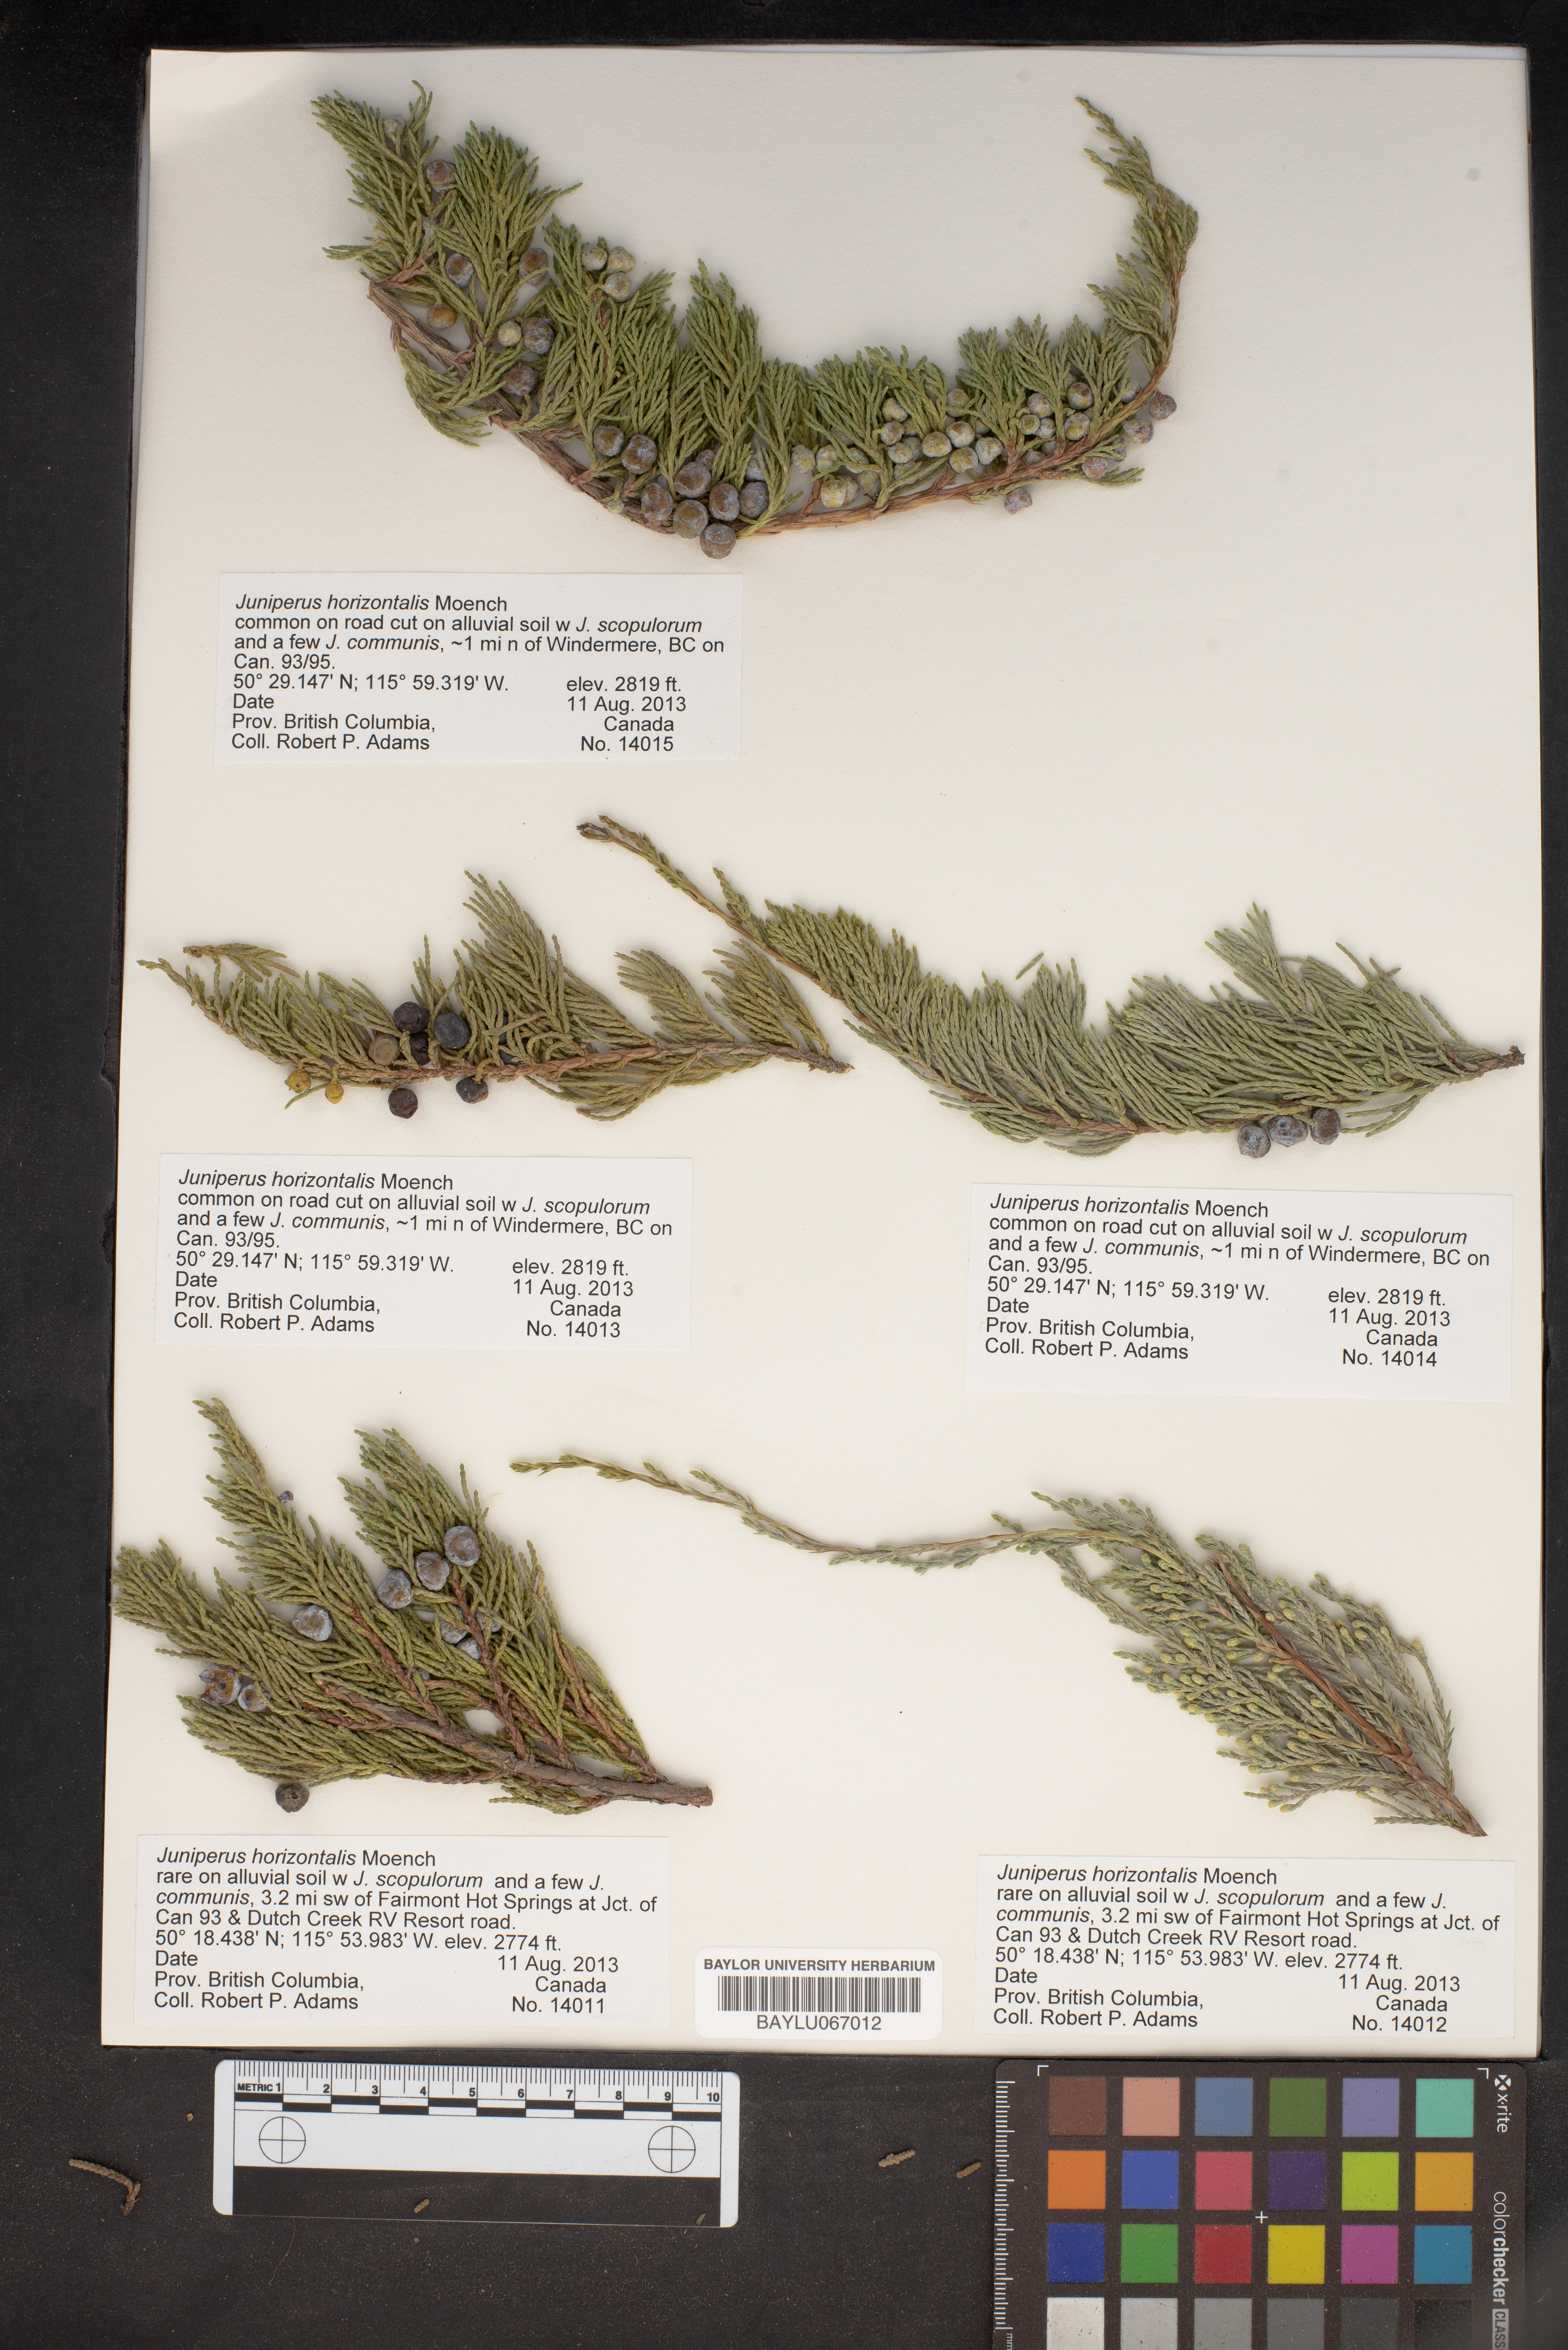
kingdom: Plantae
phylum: Tracheophyta
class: Pinopsida
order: Pinales
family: Cupressaceae
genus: Juniperus
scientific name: Juniperus horizontalis
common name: Creeping juniper
